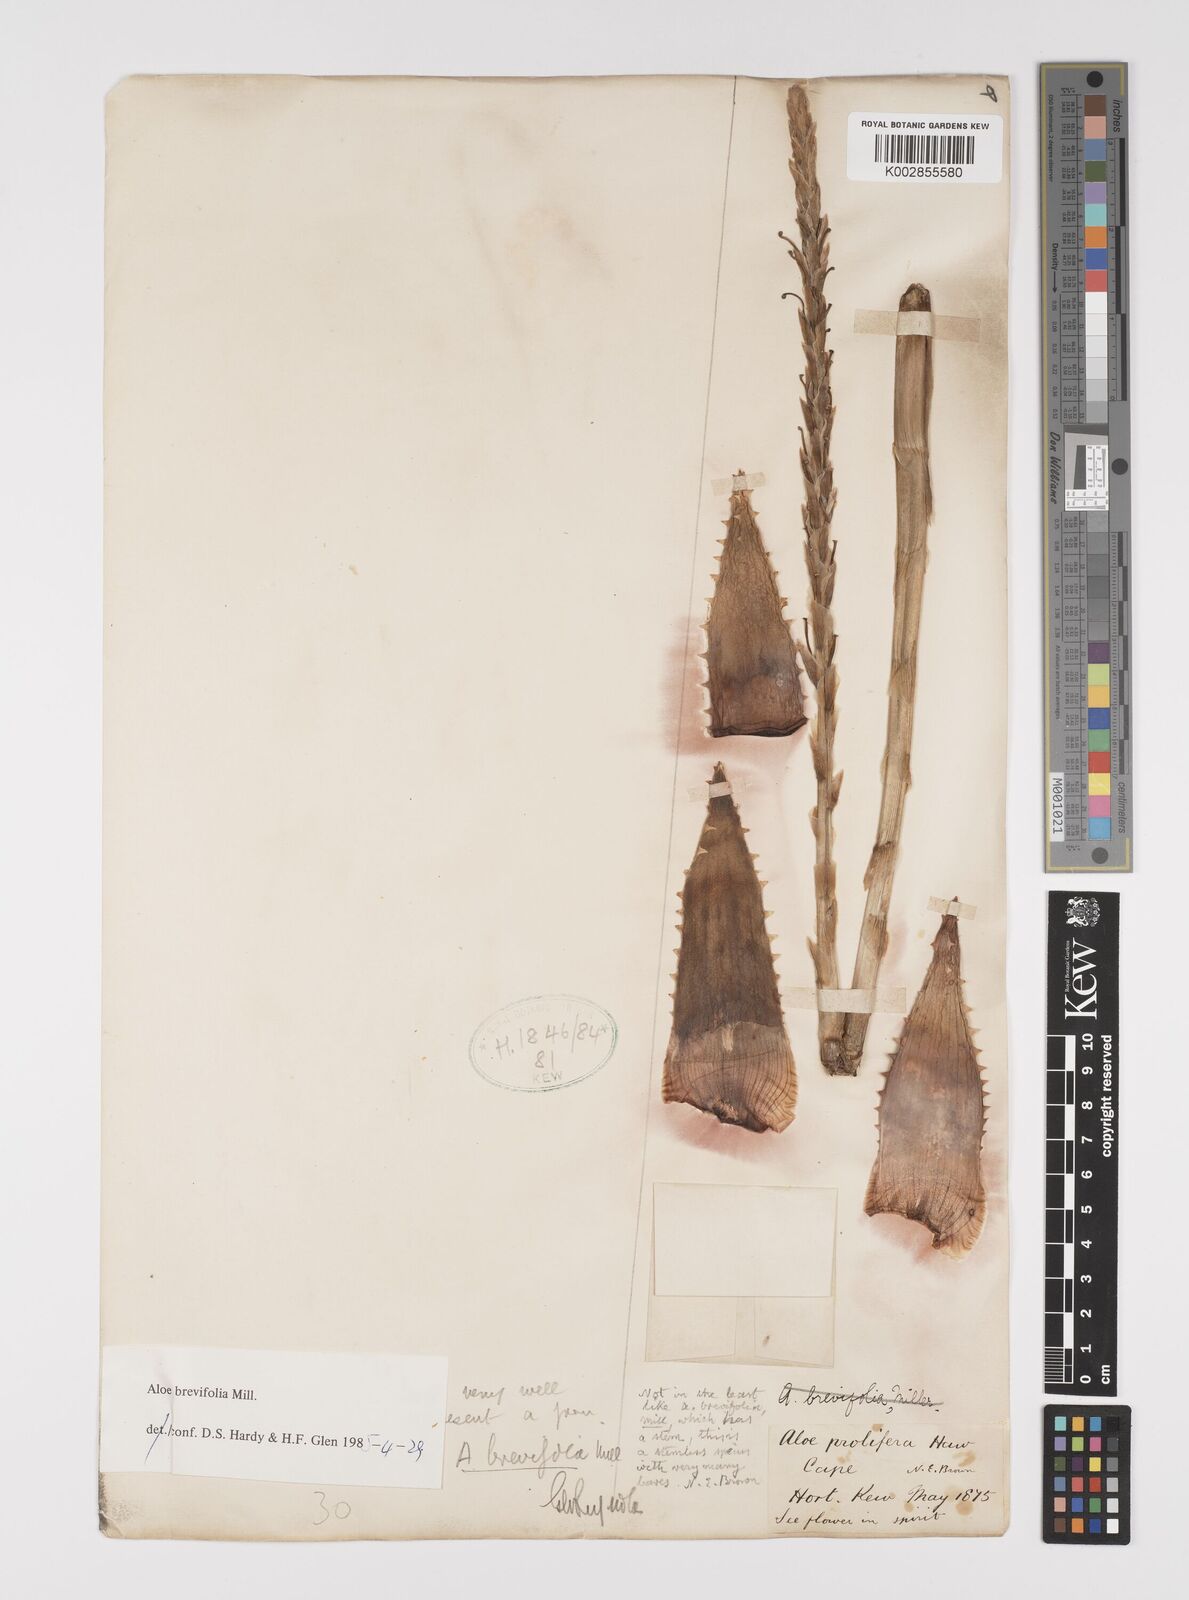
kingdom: Plantae
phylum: Tracheophyta
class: Liliopsida
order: Asparagales
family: Asphodelaceae
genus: Aloe
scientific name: Aloe brevifolia
